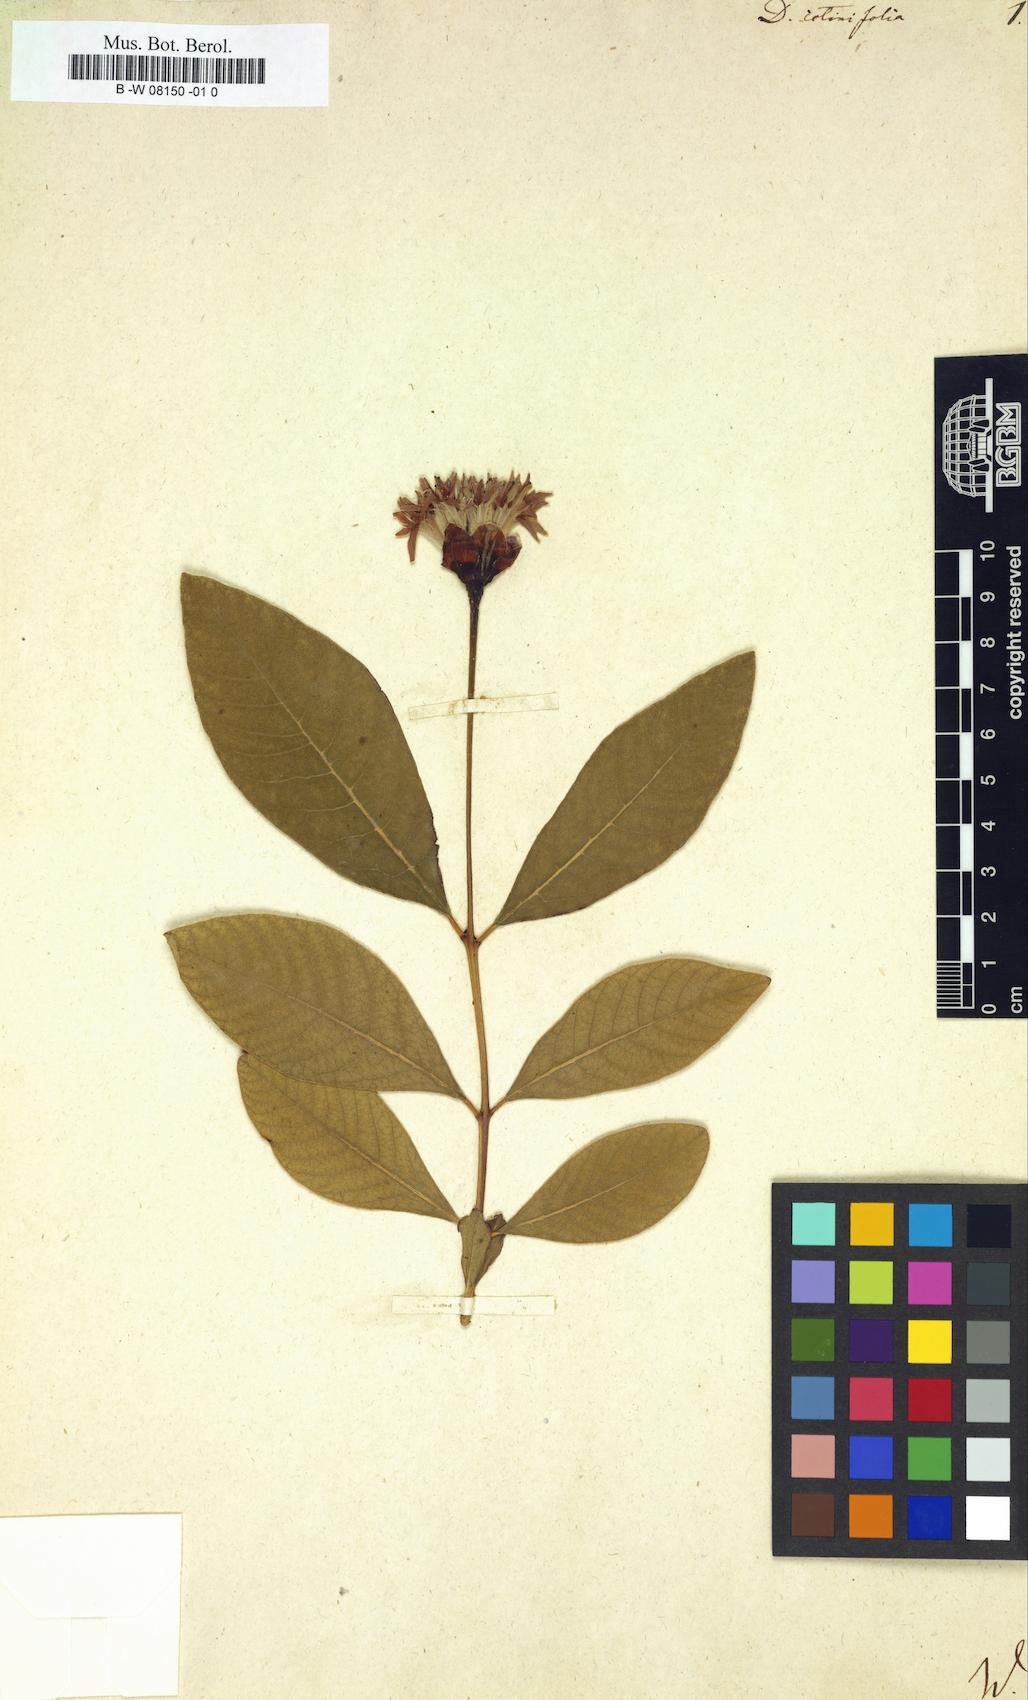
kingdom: Plantae
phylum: Tracheophyta
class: Magnoliopsida
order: Malvales
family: Thymelaeaceae
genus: Dais
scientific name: Dais cotinifolia
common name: Pompon tree
